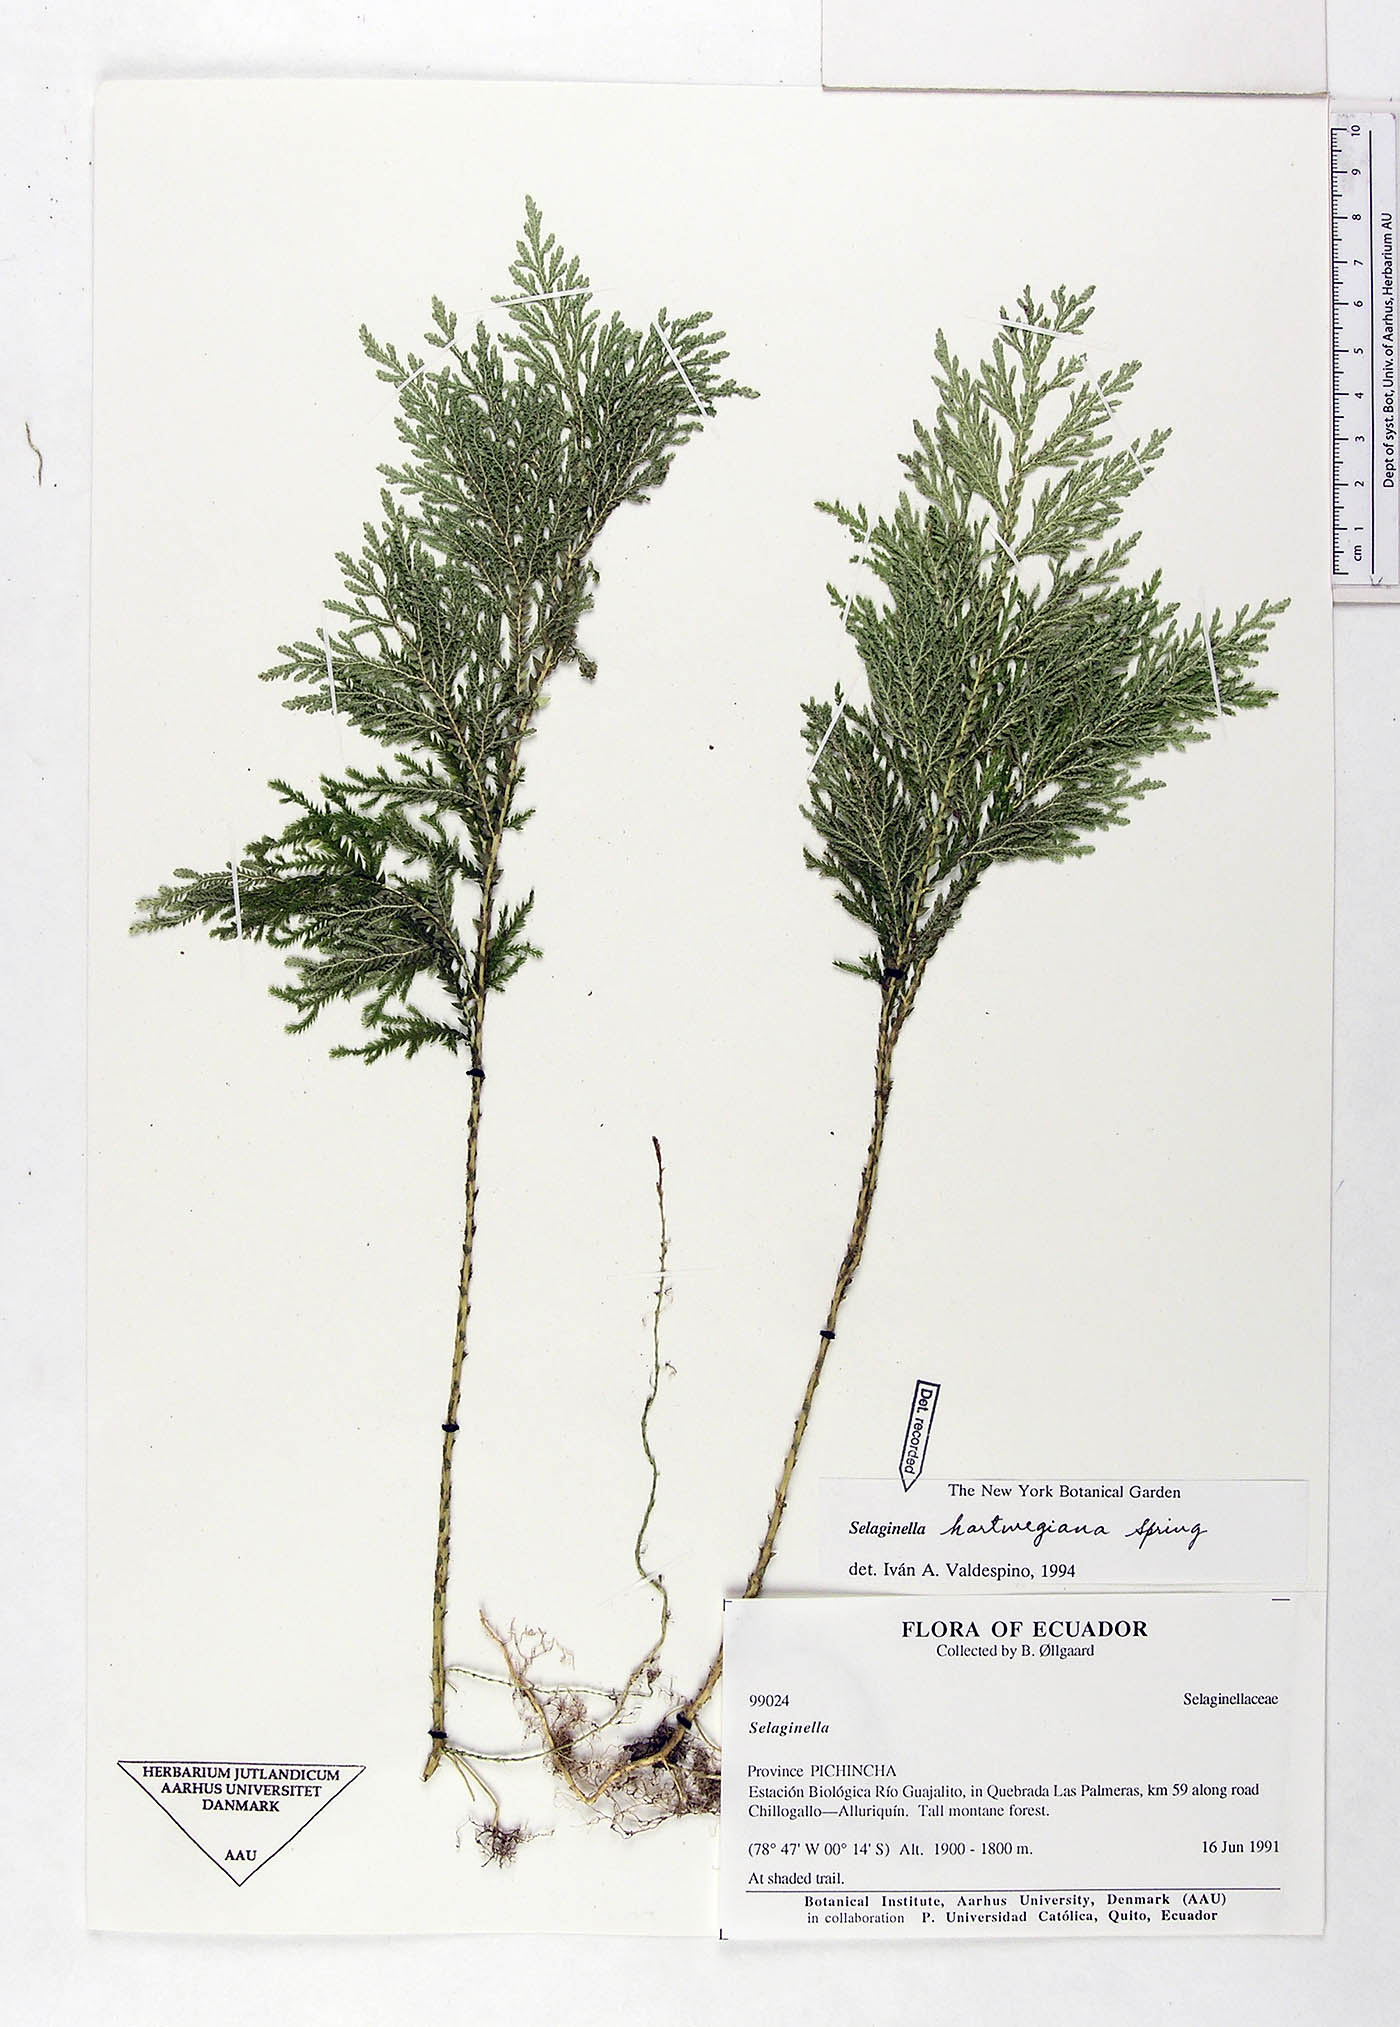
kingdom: Plantae
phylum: Tracheophyta
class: Lycopodiopsida
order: Selaginellales
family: Selaginellaceae
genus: Selaginella
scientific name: Selaginella hartwegiana
